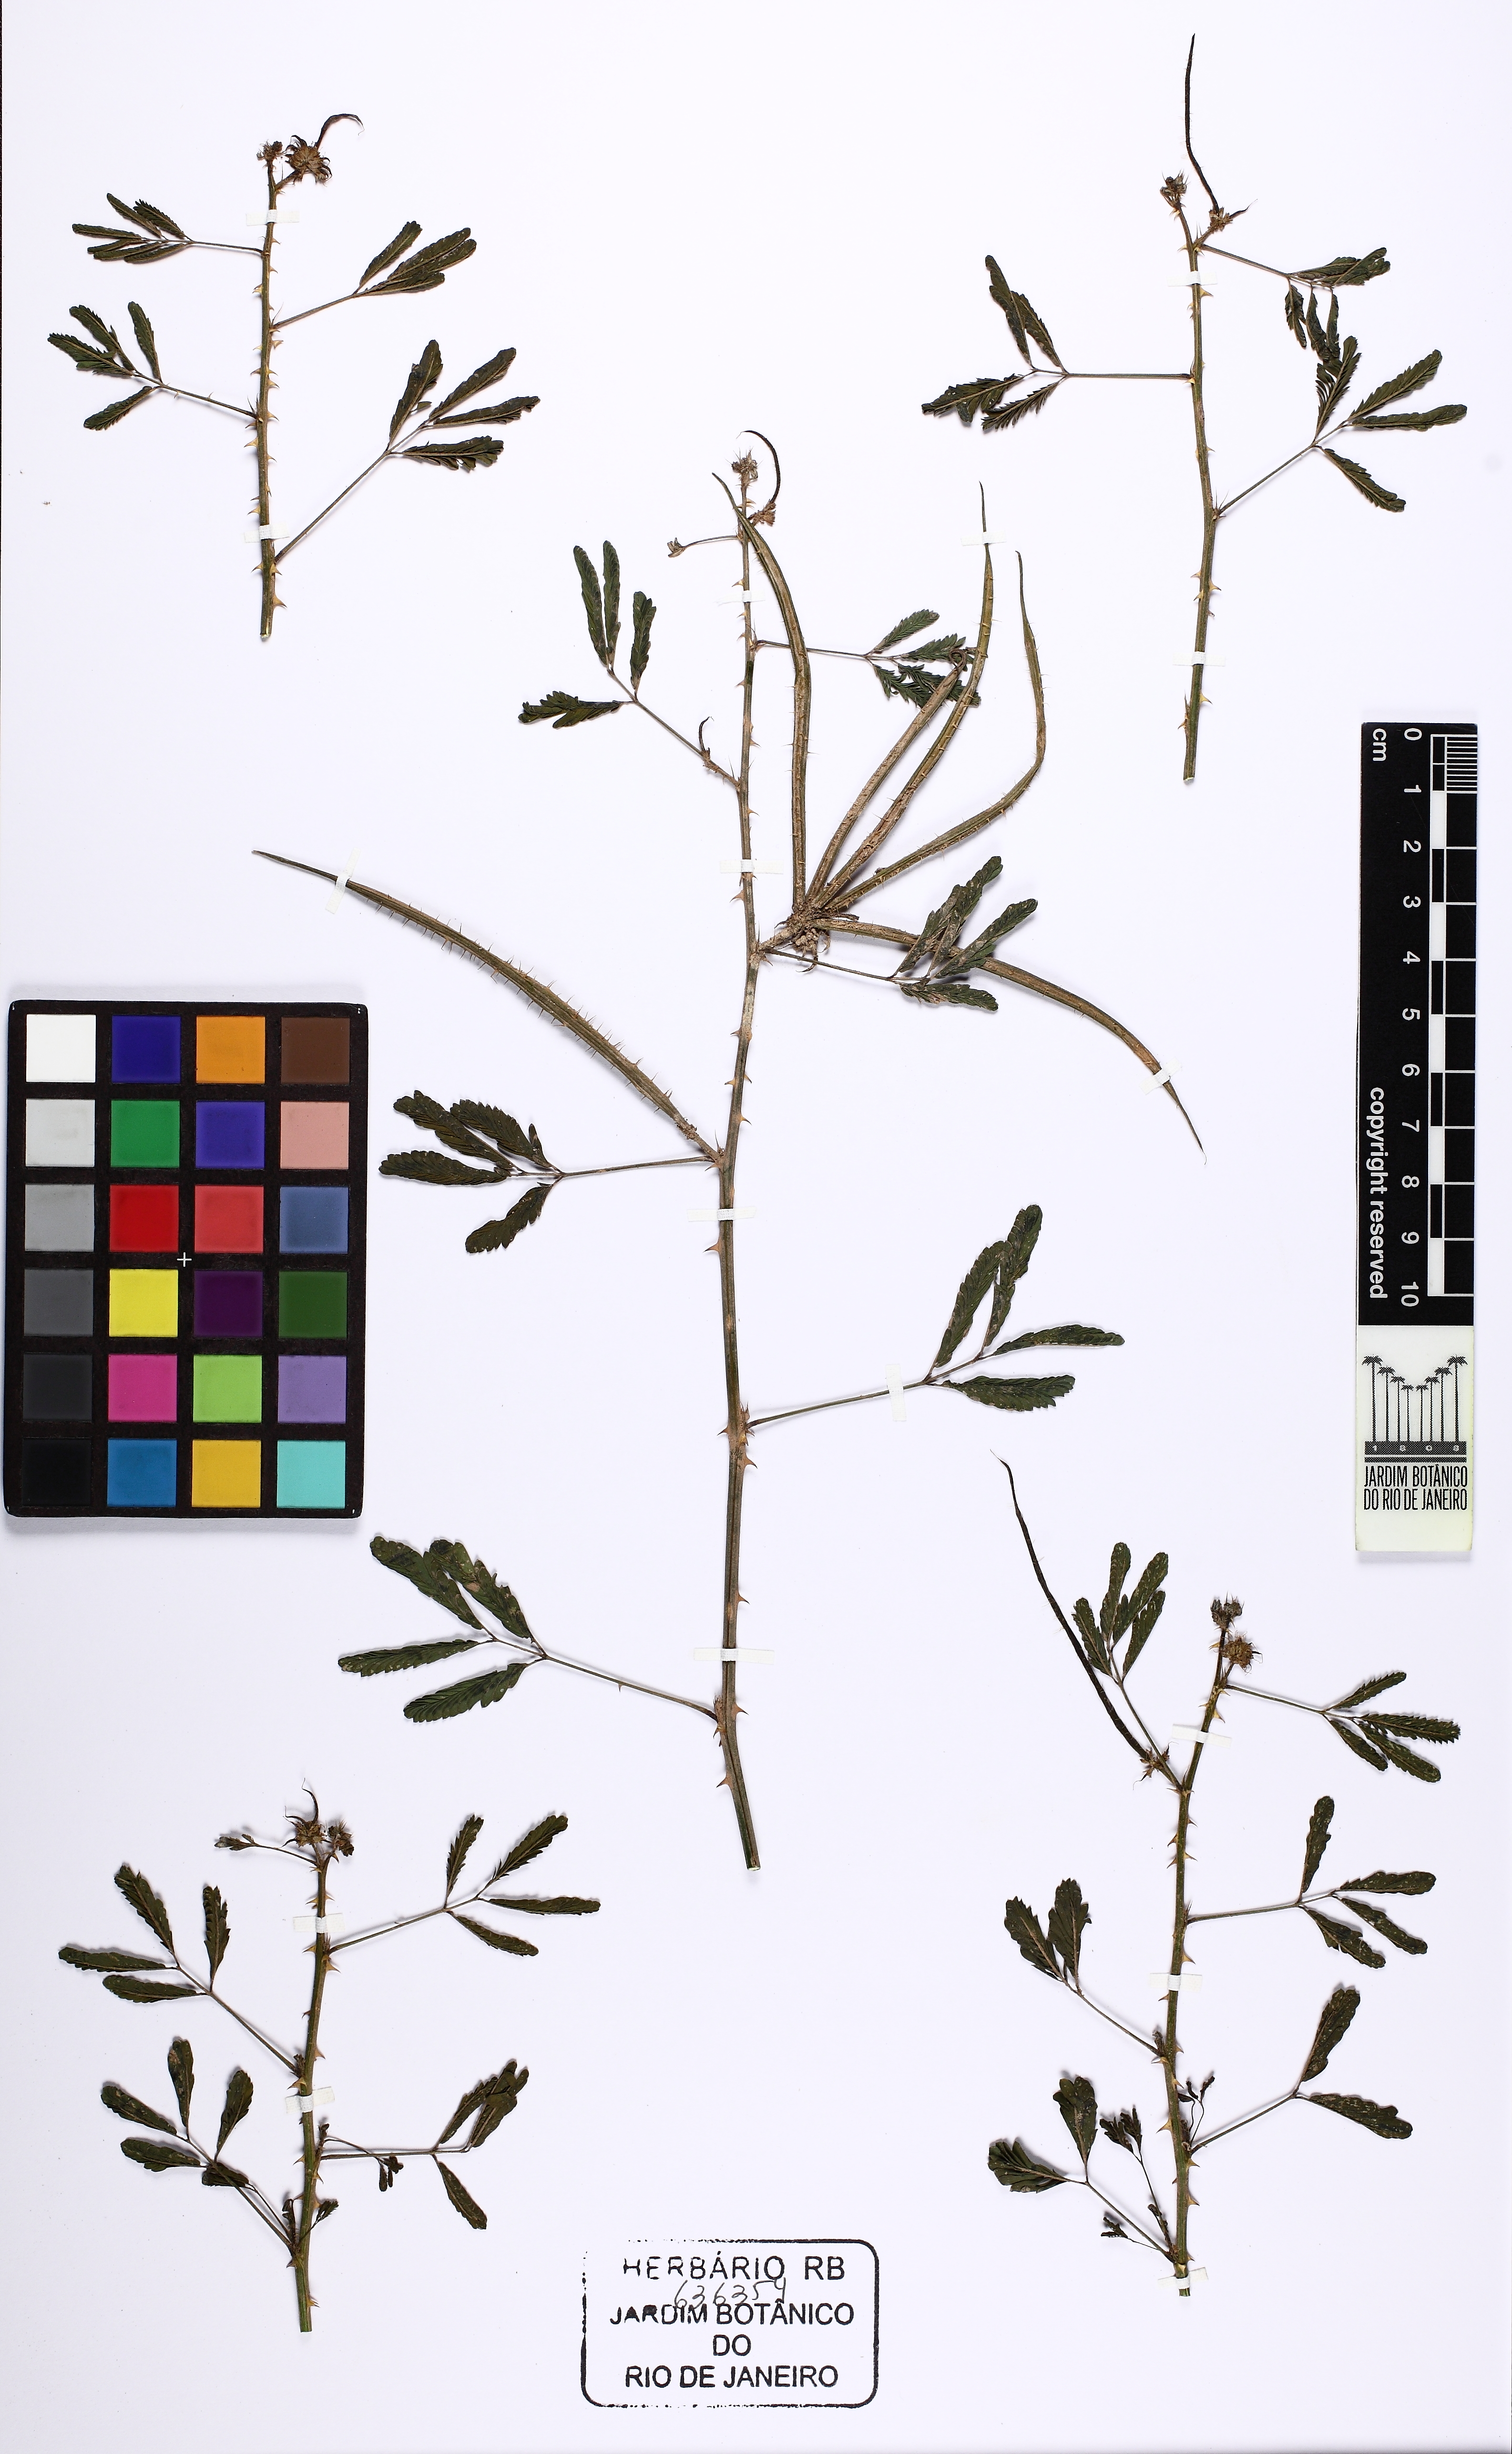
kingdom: Plantae
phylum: Tracheophyta
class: Magnoliopsida
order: Fabales
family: Fabaceae
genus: Mimosa
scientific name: Mimosa candollei
